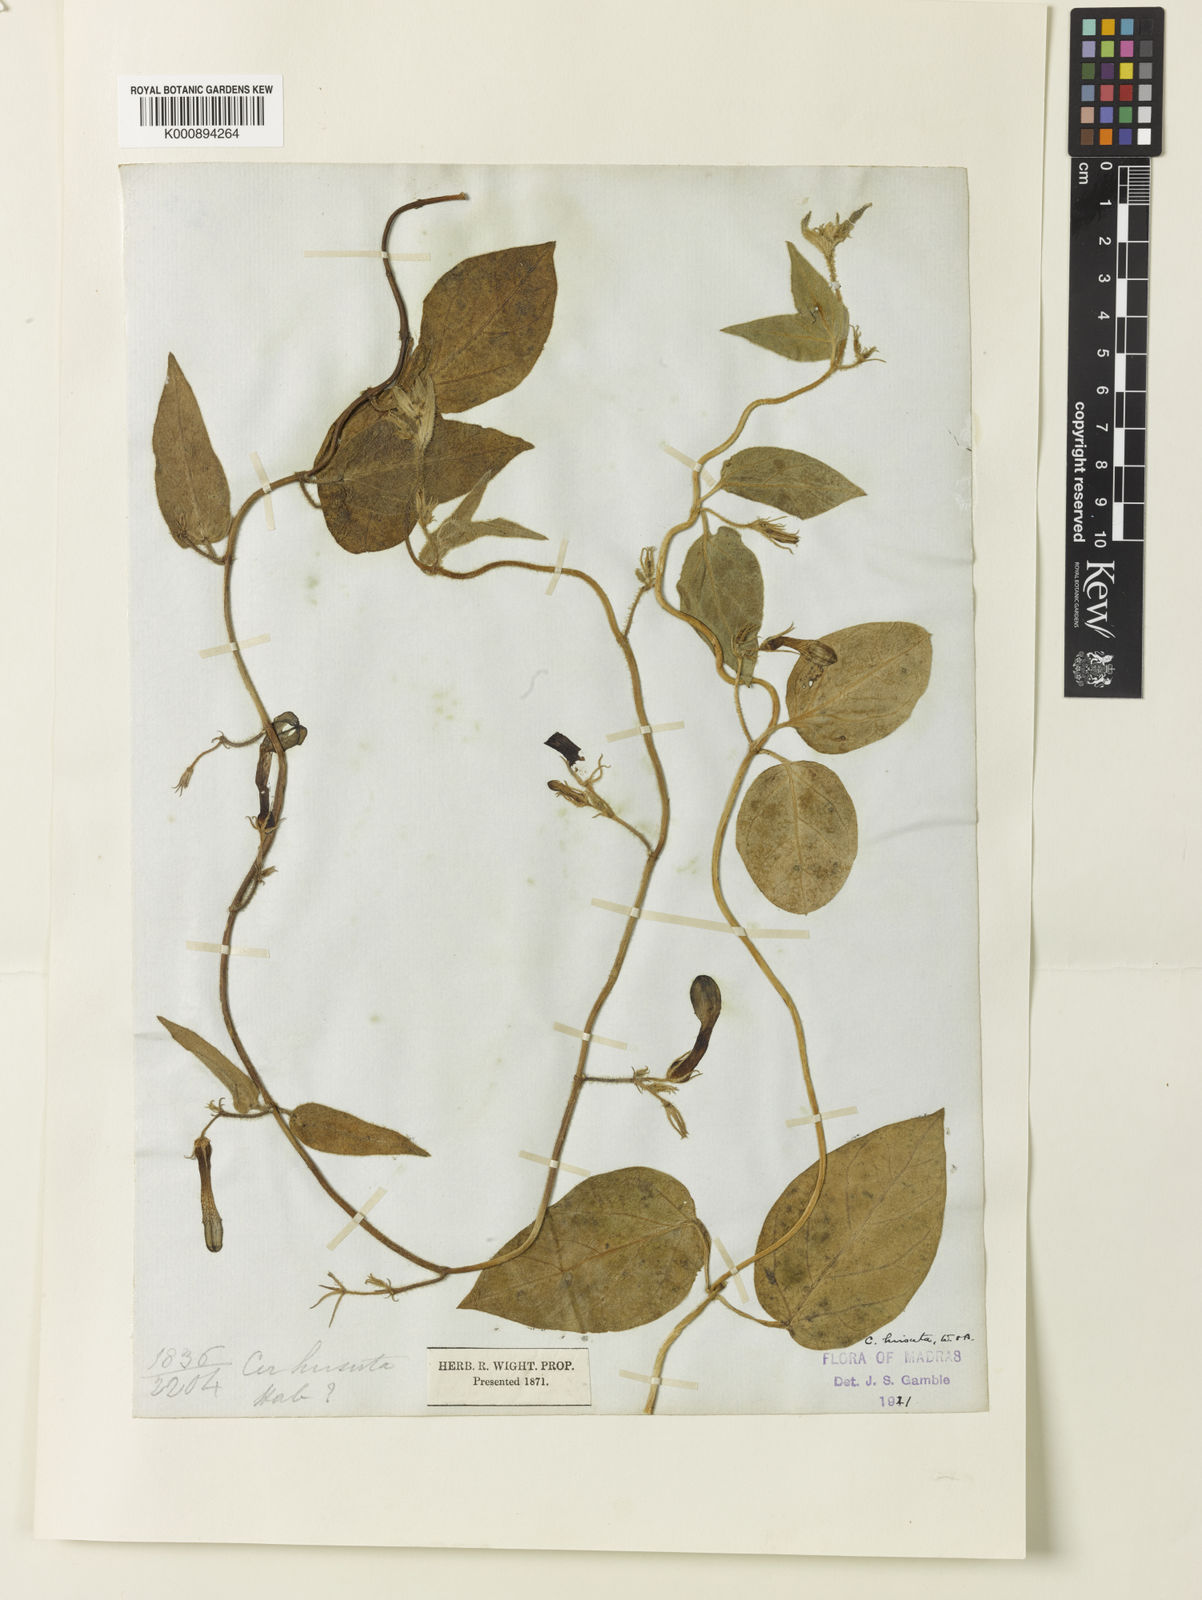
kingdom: Plantae
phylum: Tracheophyta
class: Magnoliopsida
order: Gentianales
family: Apocynaceae
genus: Ceropegia
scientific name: Ceropegia hirsuta
